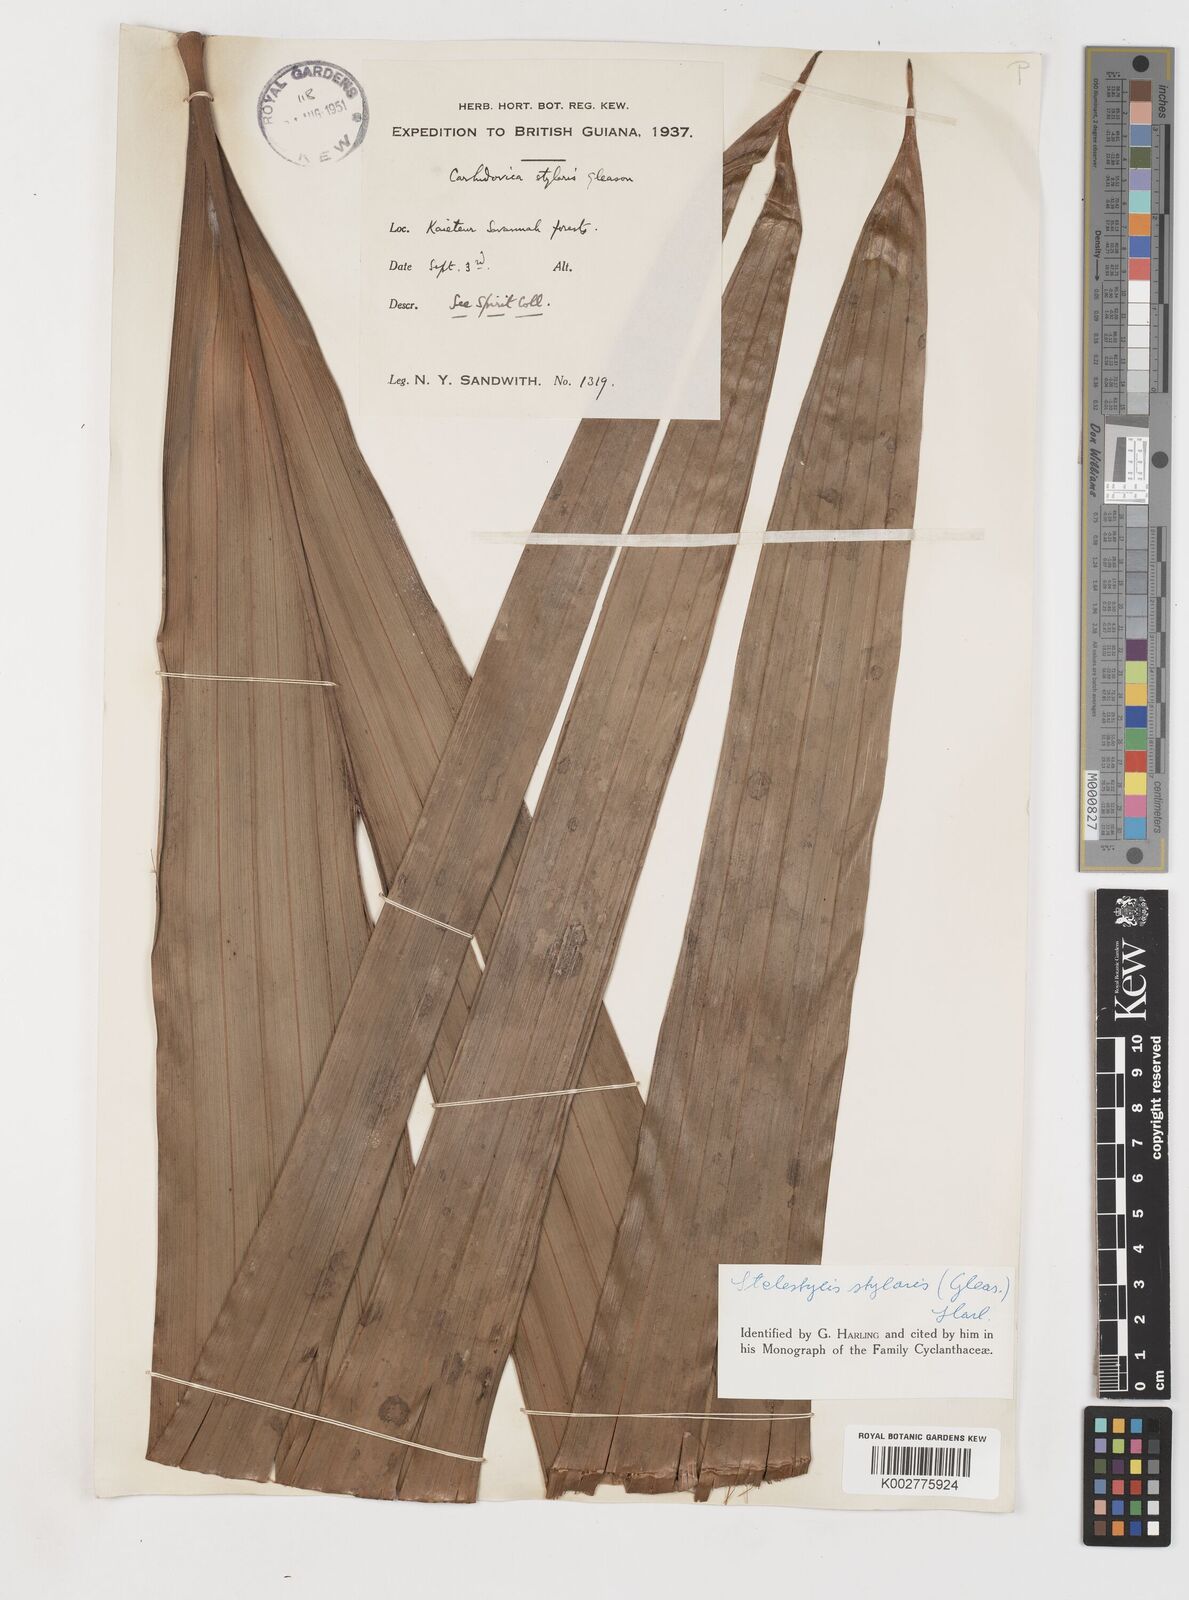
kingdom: Plantae
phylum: Tracheophyta
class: Liliopsida
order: Pandanales
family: Cyclanthaceae
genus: Stelestylis
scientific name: Stelestylis stylaris
